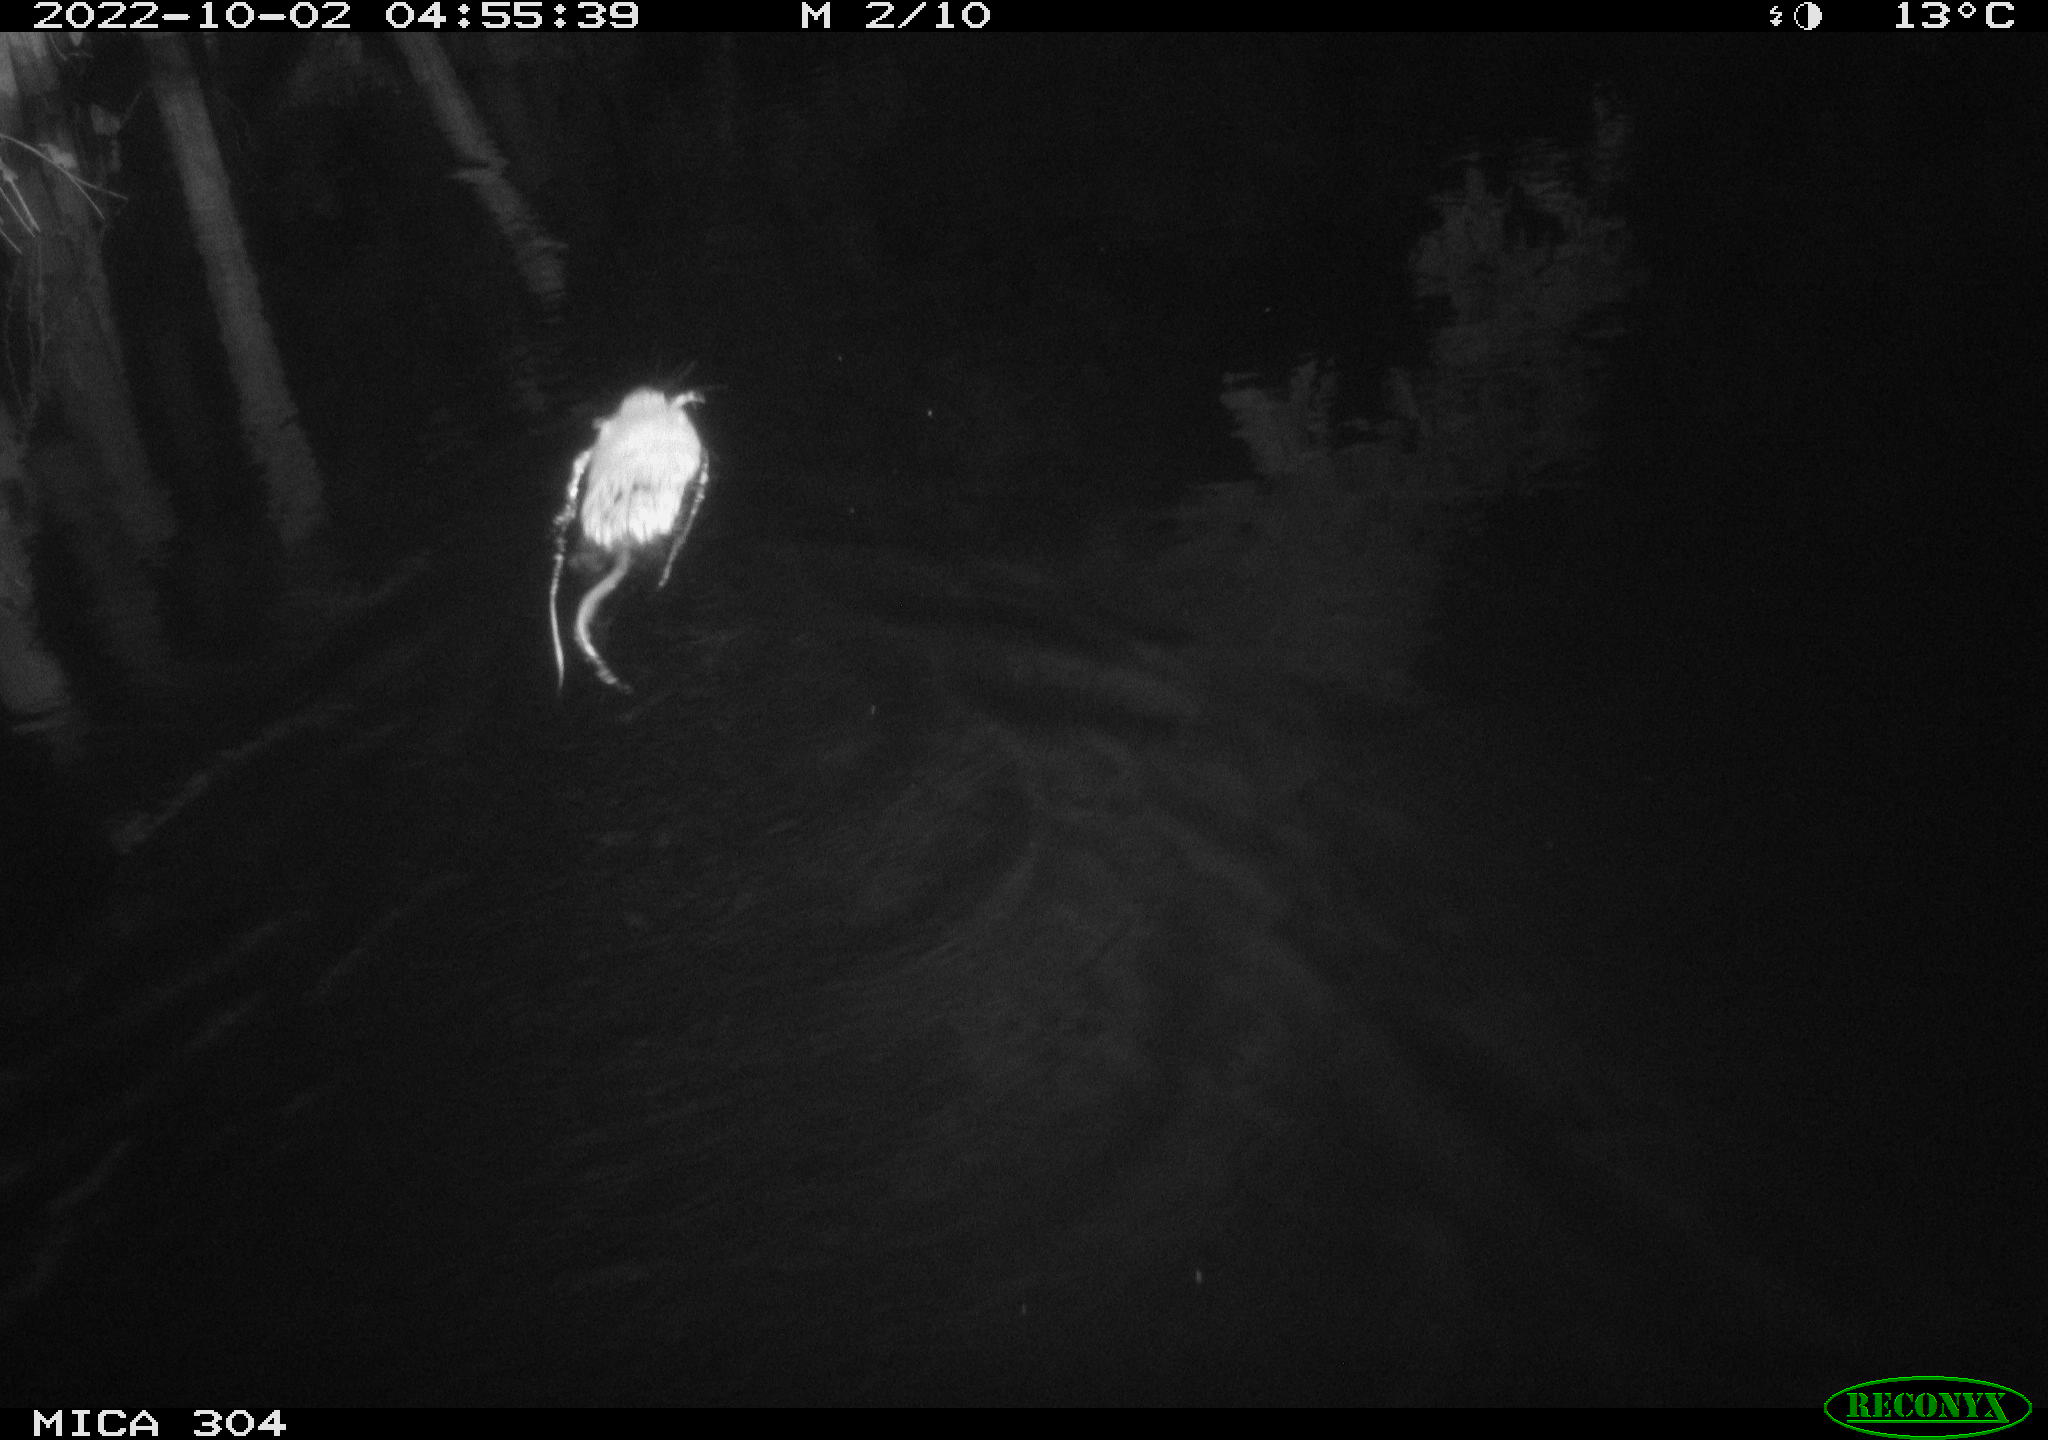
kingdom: Animalia
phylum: Chordata
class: Mammalia
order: Rodentia
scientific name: Rodentia
